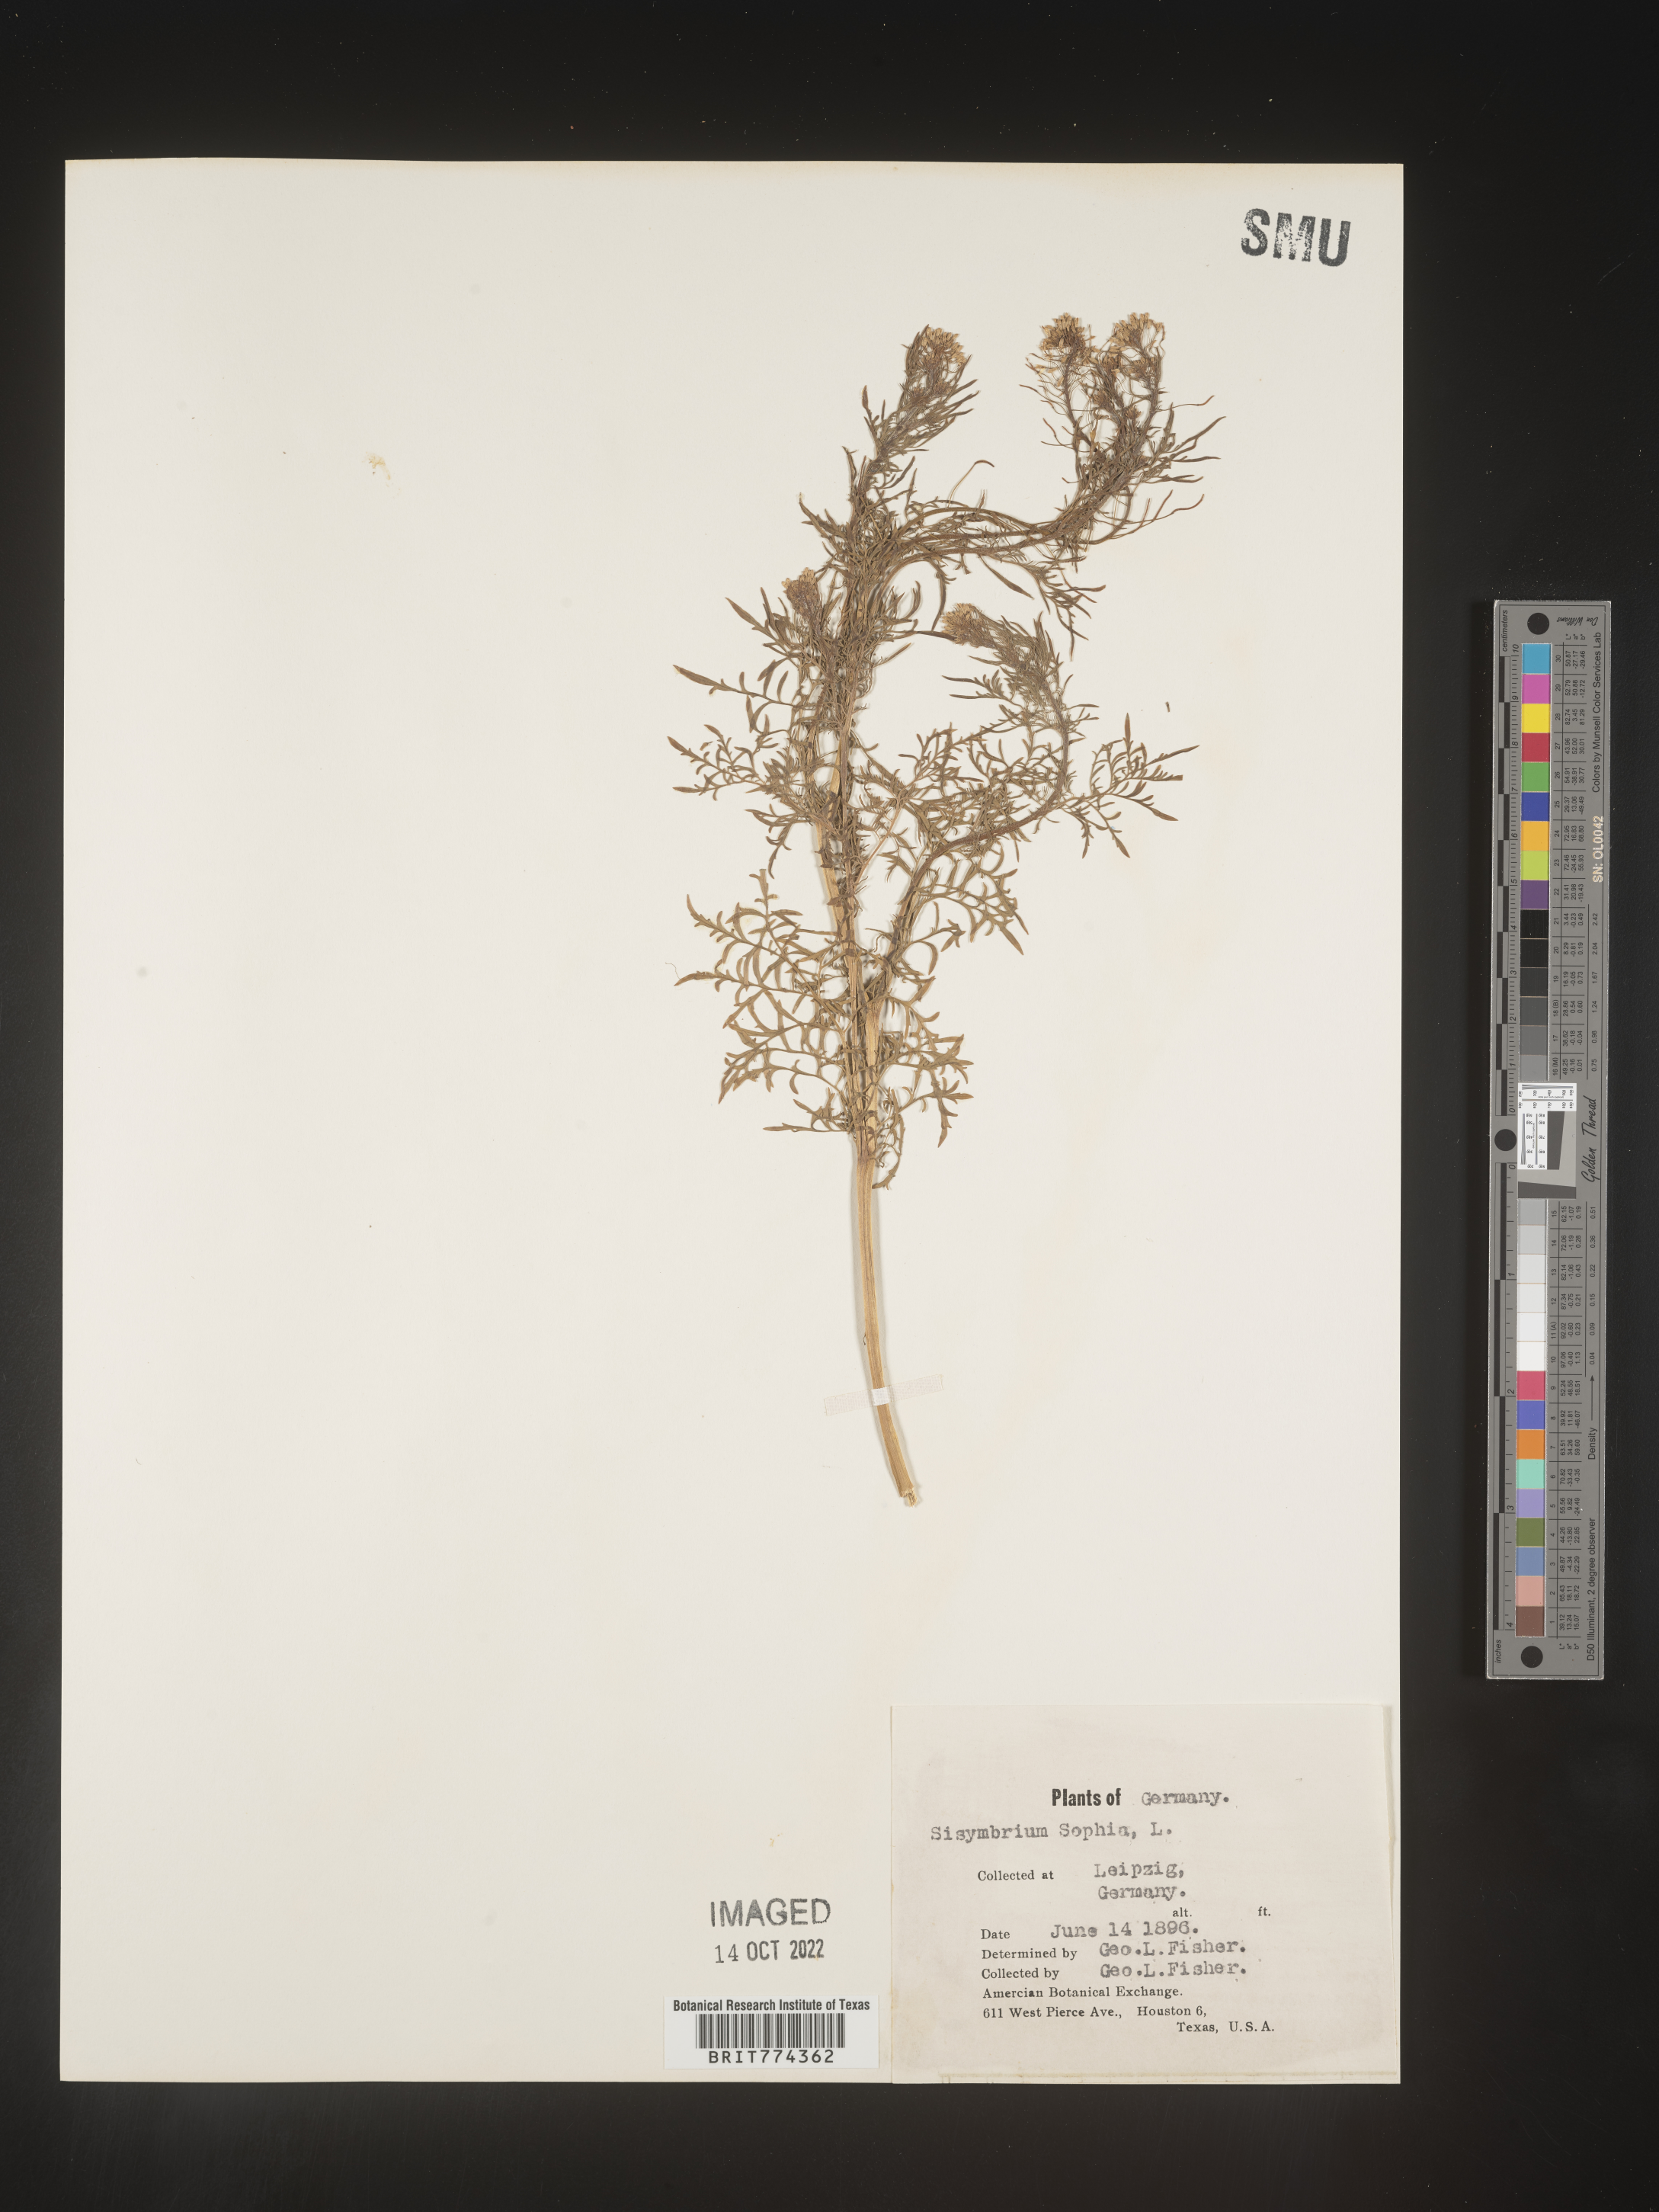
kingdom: Plantae
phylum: Tracheophyta
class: Magnoliopsida
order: Brassicales
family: Brassicaceae
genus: Descurainia
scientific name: Descurainia
